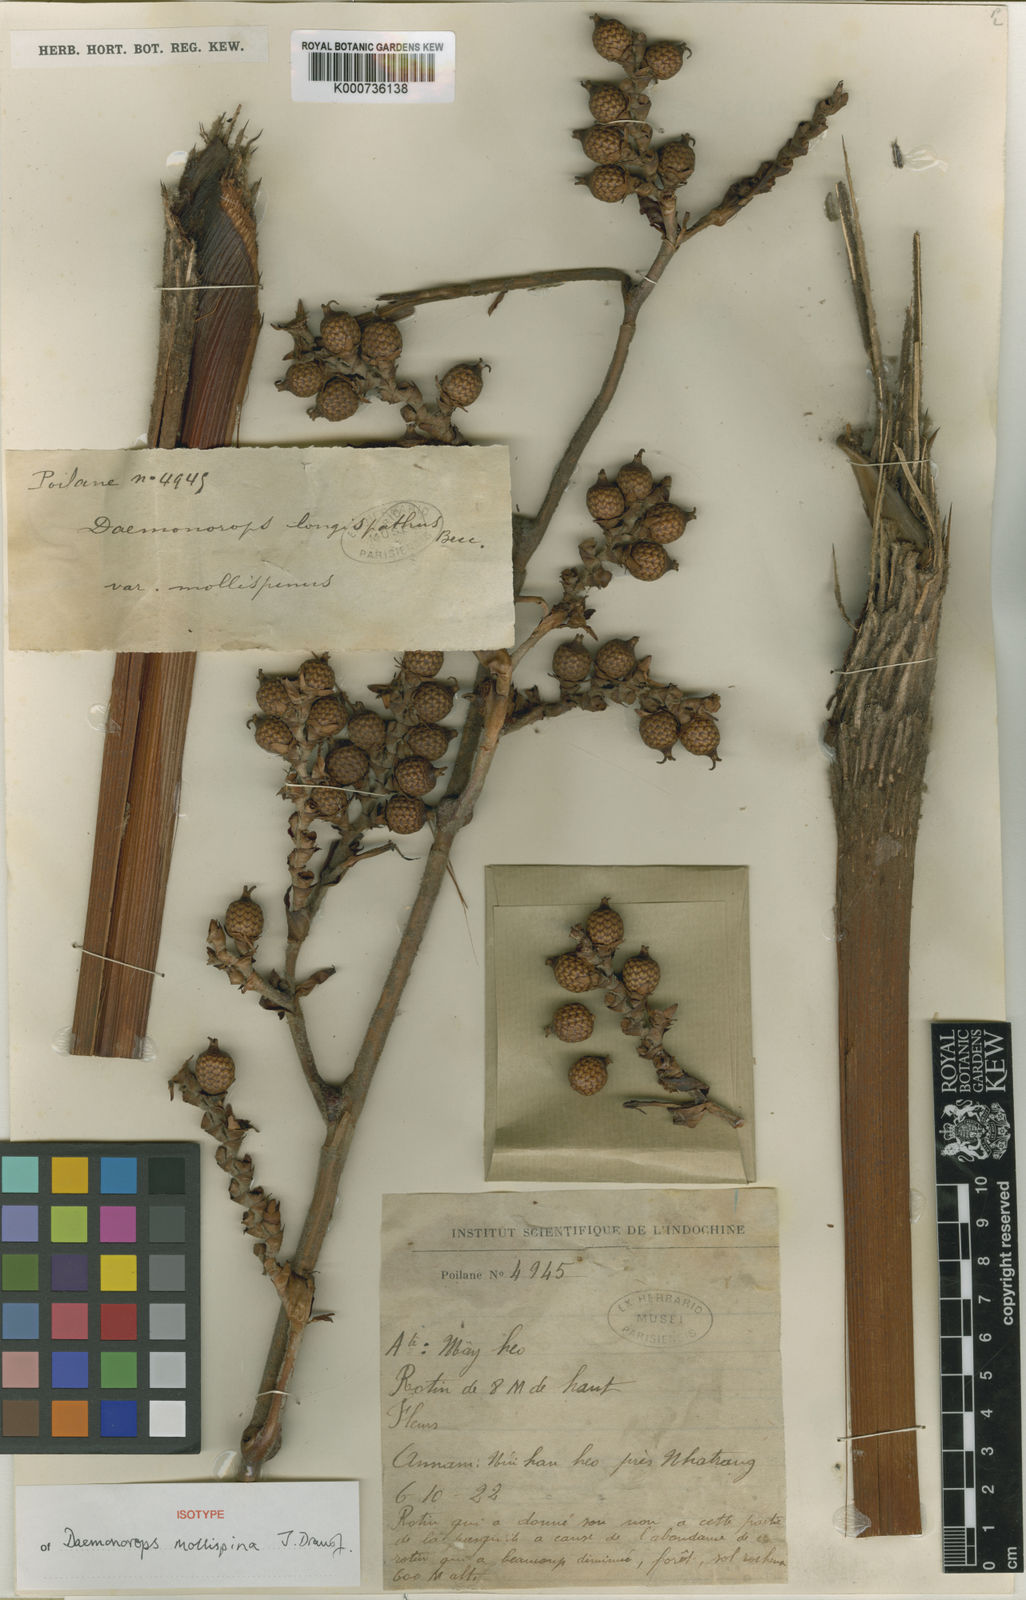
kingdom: Plantae
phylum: Tracheophyta
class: Liliopsida
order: Arecales
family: Arecaceae
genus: Calamus
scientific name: Calamus mollispinus
